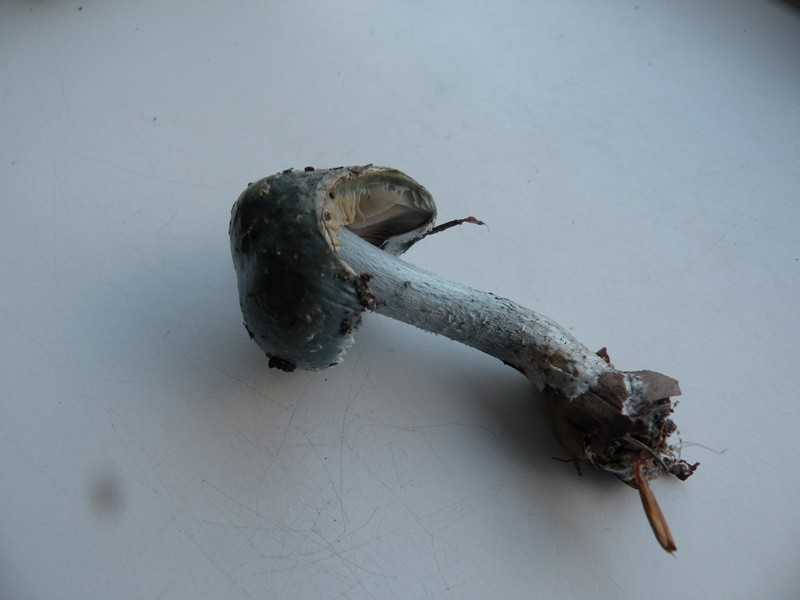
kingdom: Fungi
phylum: Basidiomycota
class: Agaricomycetes
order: Agaricales
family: Strophariaceae
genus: Stropharia
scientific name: Stropharia cyanea
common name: blågrøn bredblad
